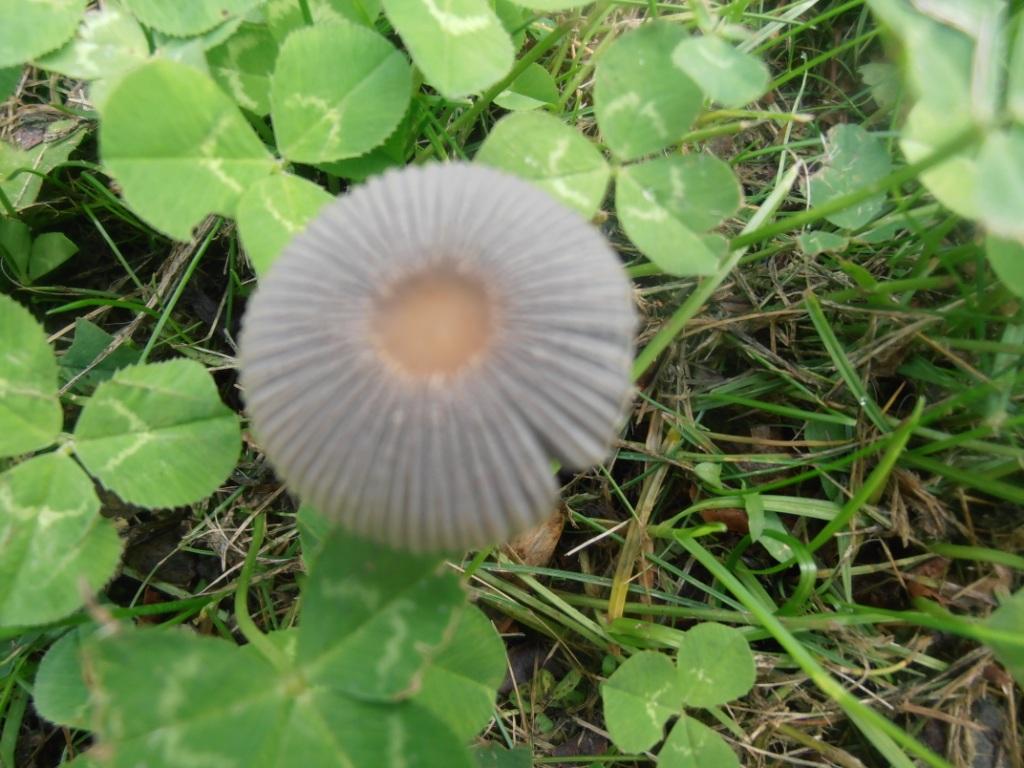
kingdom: Fungi
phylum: Basidiomycota
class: Agaricomycetes
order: Agaricales
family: Psathyrellaceae
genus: Parasola
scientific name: Parasola lactea
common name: glat hjulhat
